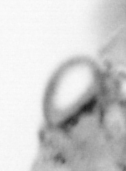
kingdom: Animalia
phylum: Arthropoda
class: Copepoda
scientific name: Copepoda
